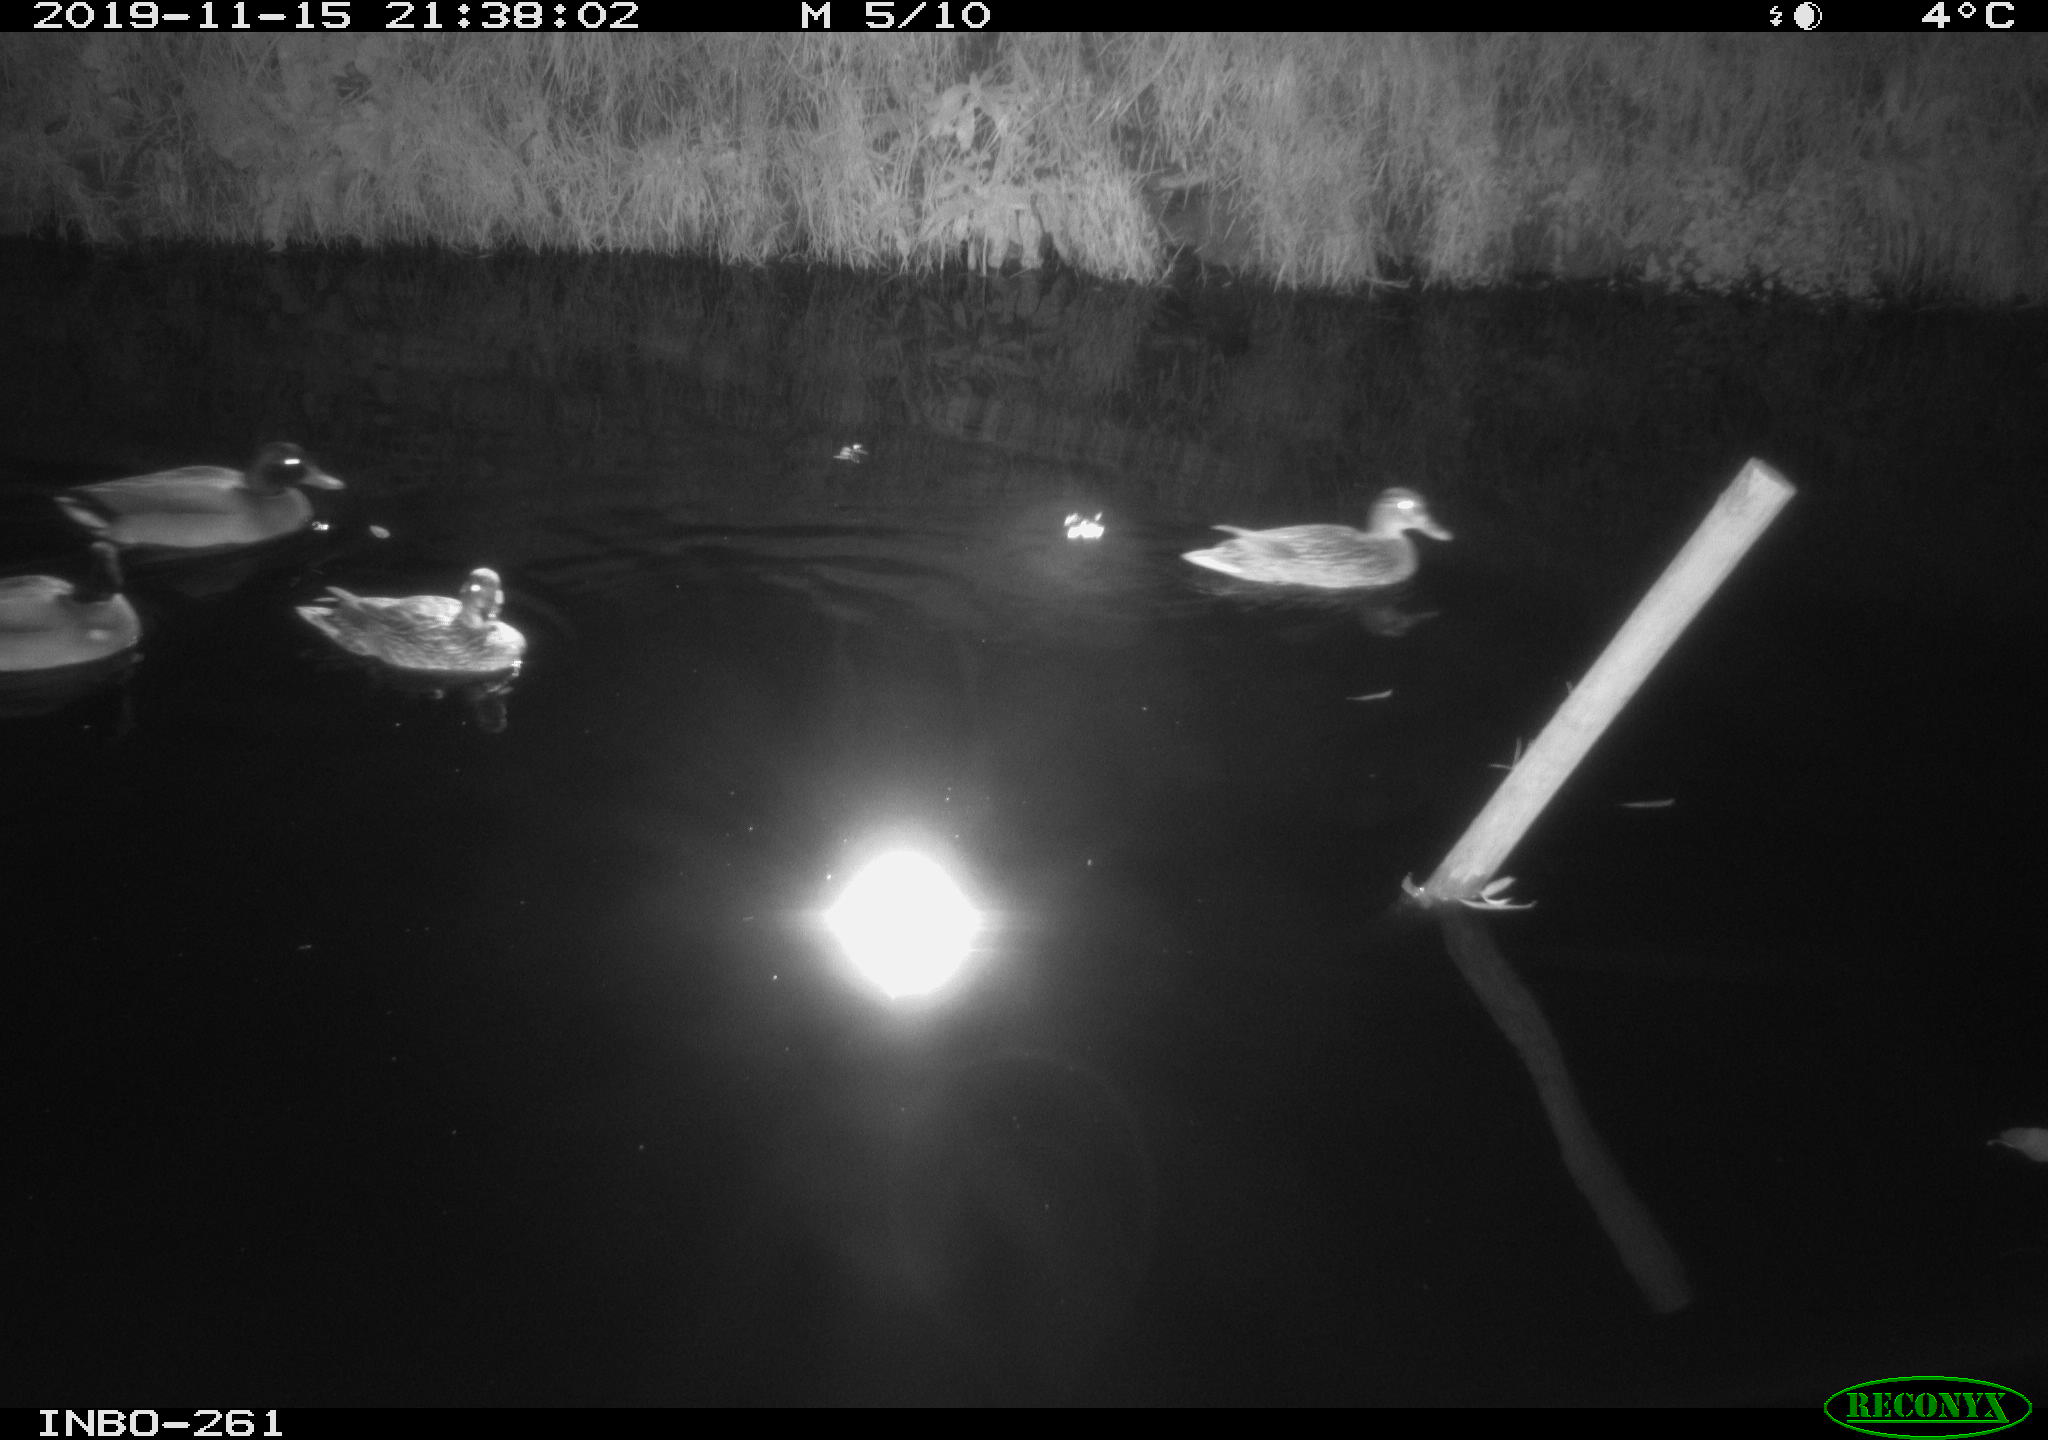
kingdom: Animalia
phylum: Chordata
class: Aves
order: Anseriformes
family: Anatidae
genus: Anas
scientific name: Anas platyrhynchos
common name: Mallard
